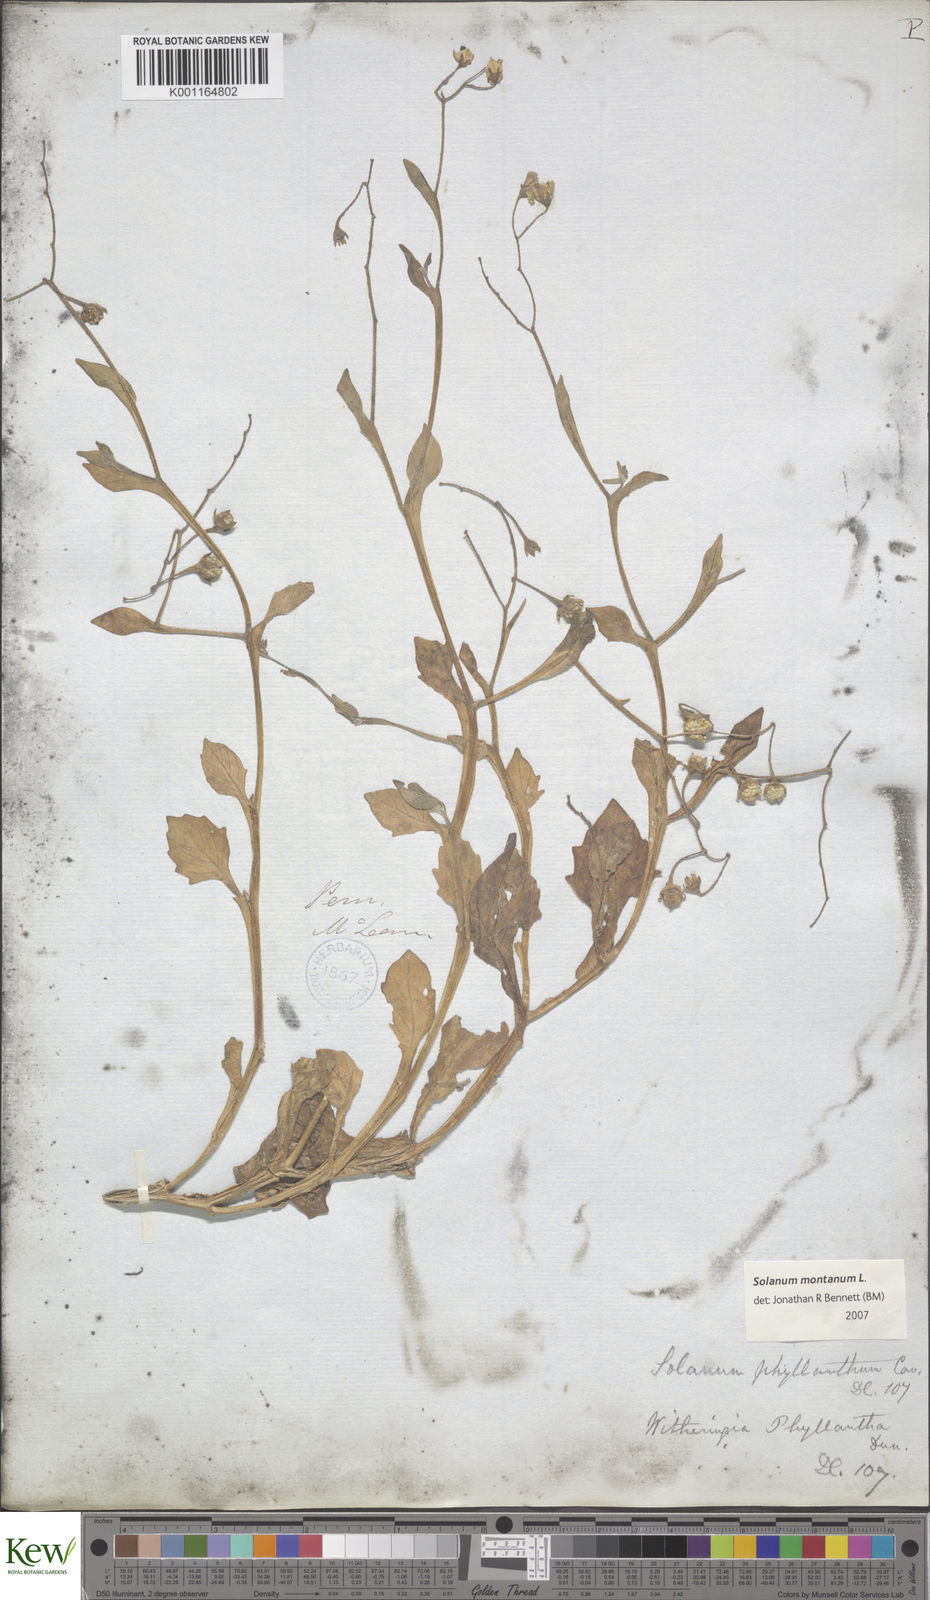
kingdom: Plantae
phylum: Tracheophyta
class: Magnoliopsida
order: Solanales
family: Solanaceae
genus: Solanum
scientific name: Solanum montanum
